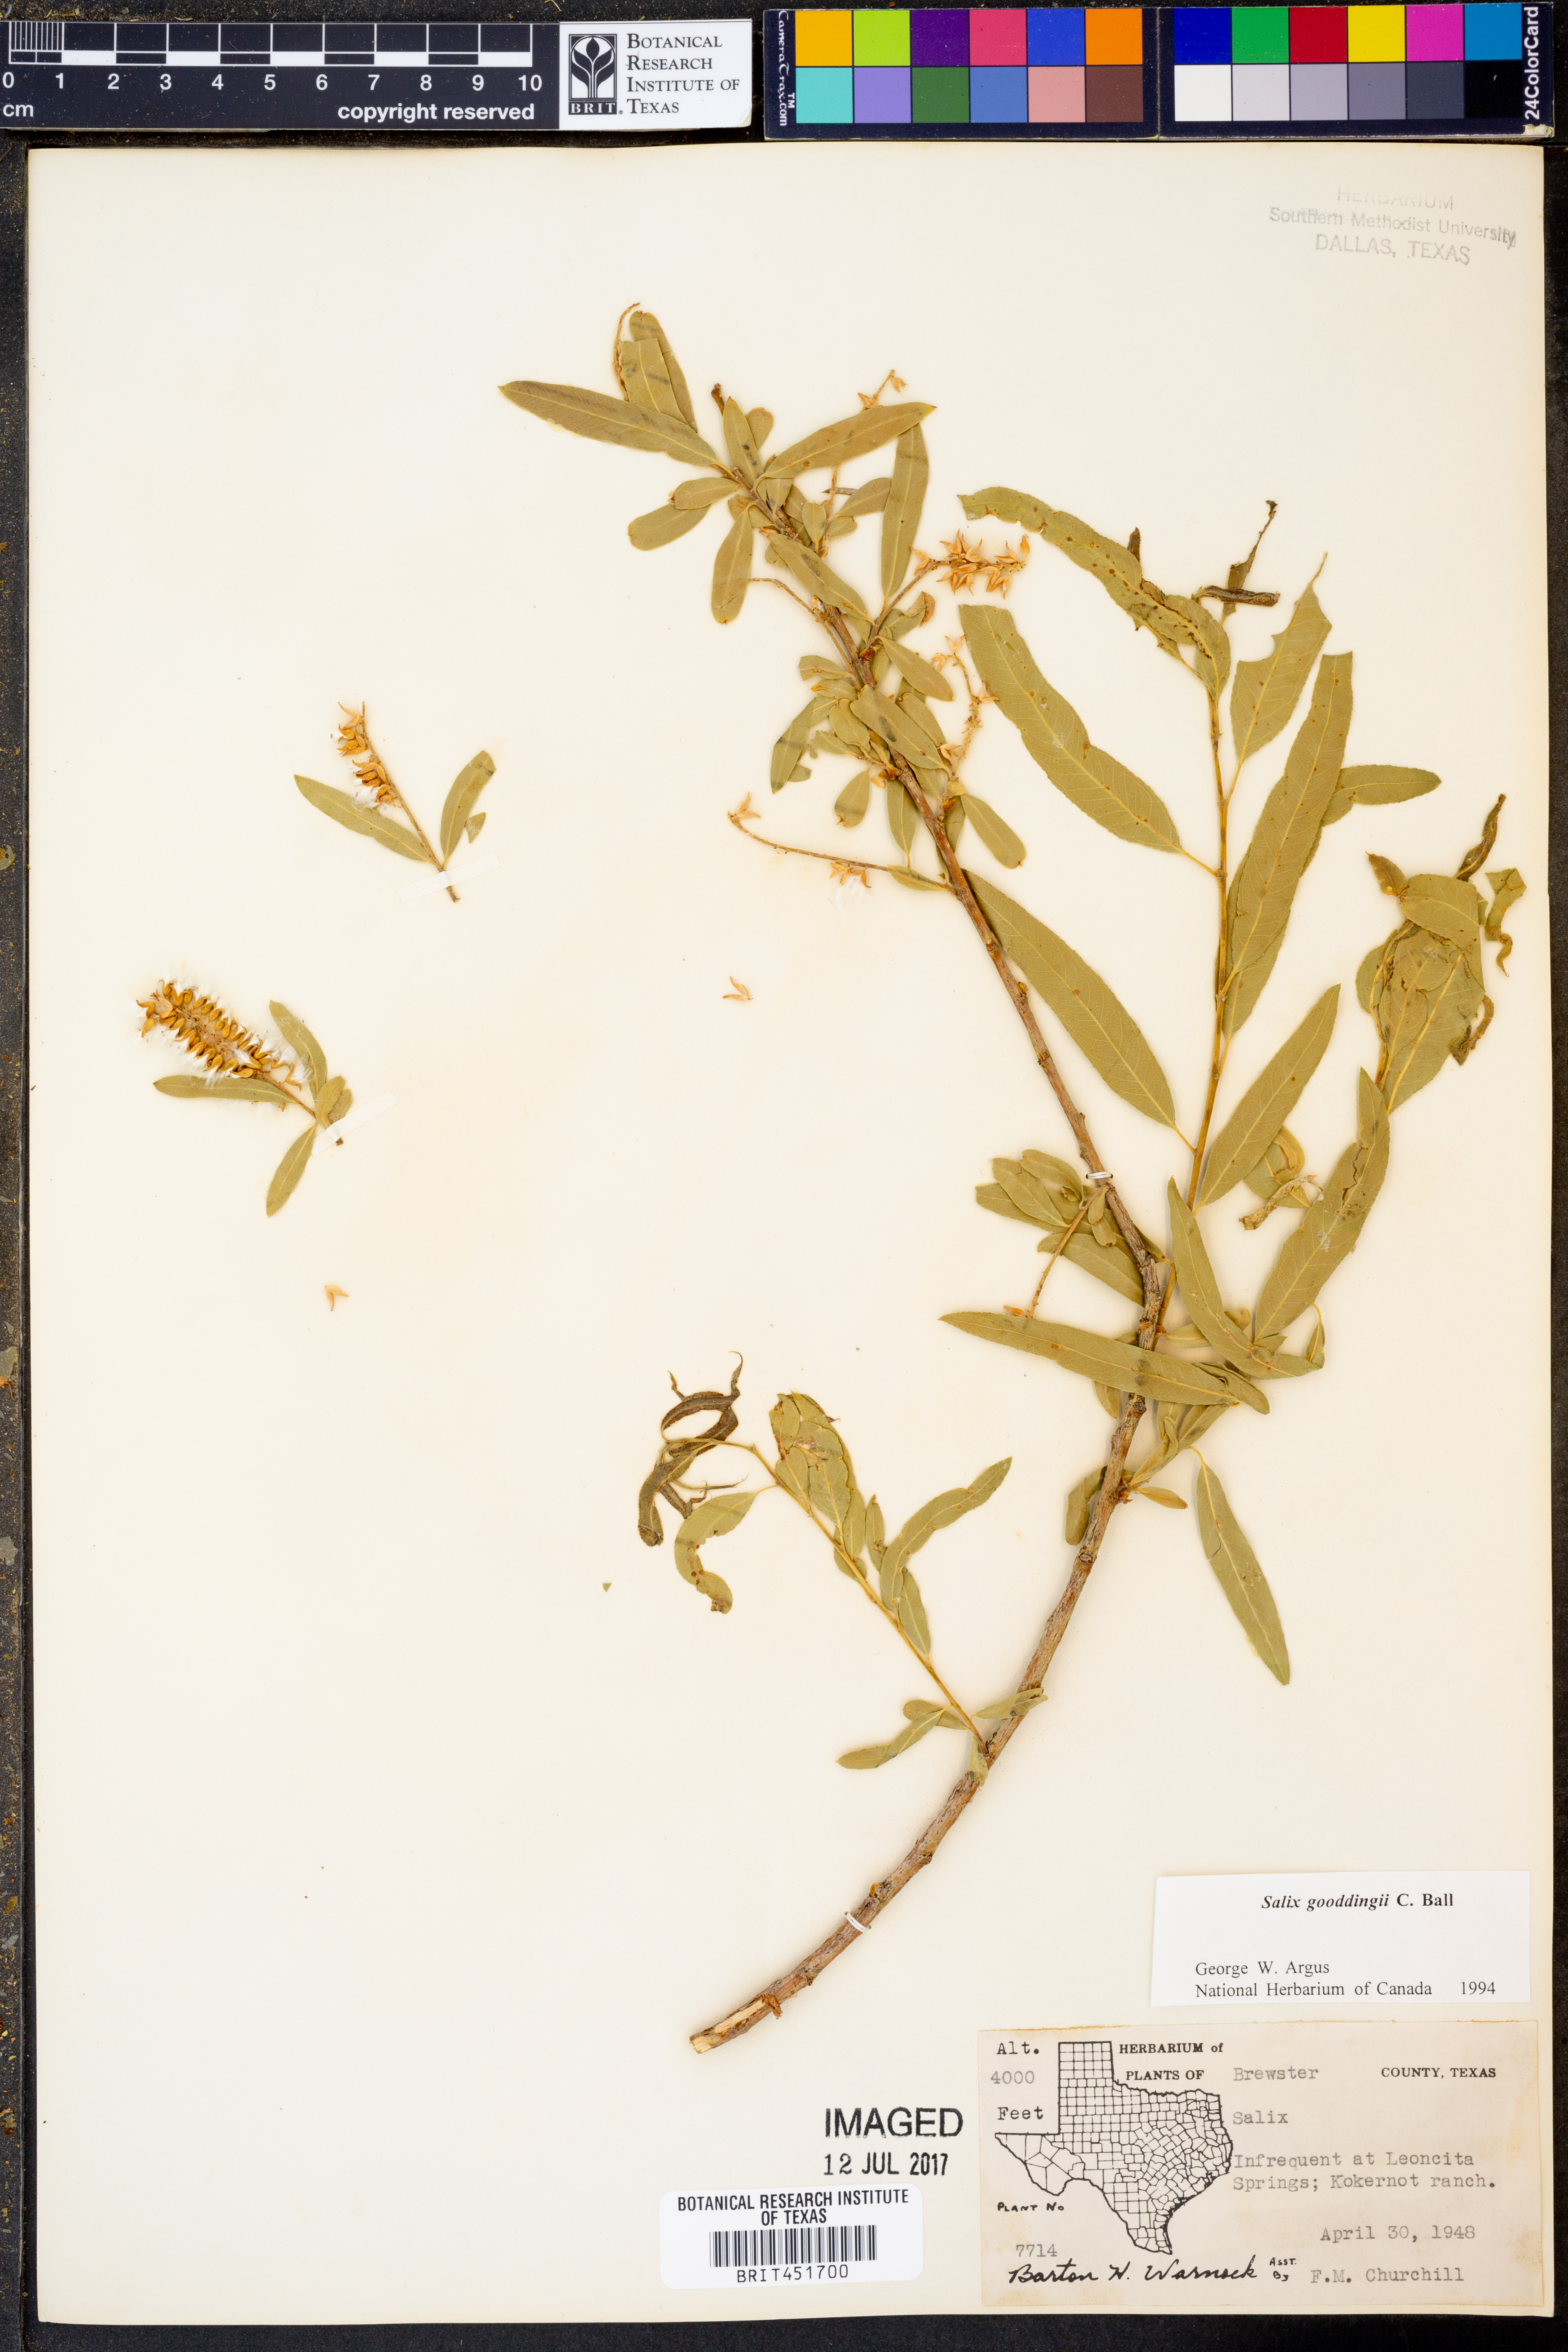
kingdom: Plantae
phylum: Tracheophyta
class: Magnoliopsida
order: Malpighiales
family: Salicaceae
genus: Salix
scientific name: Salix gooddingii
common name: Goodding's willow
